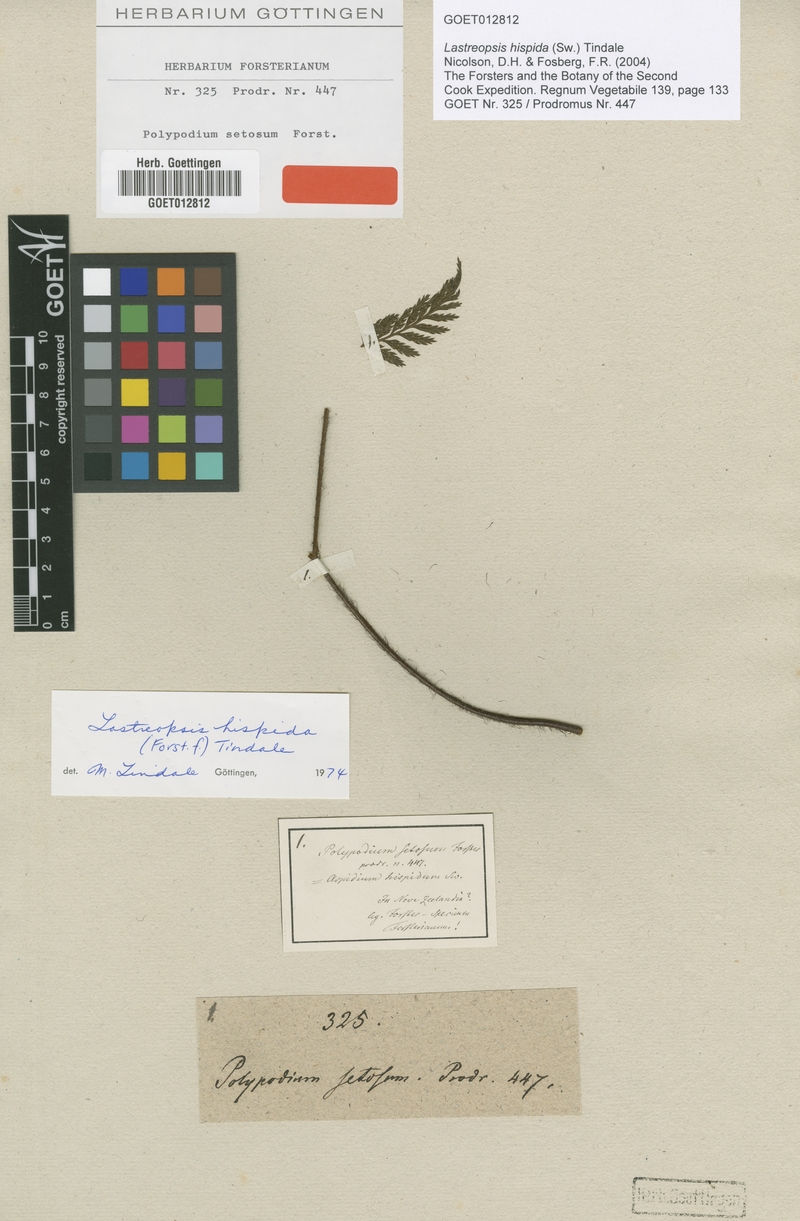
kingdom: Plantae
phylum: Tracheophyta
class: Polypodiopsida
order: Polypodiales
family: Dryopteridaceae
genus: Lastreopsis
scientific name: Lastreopsis hispida
